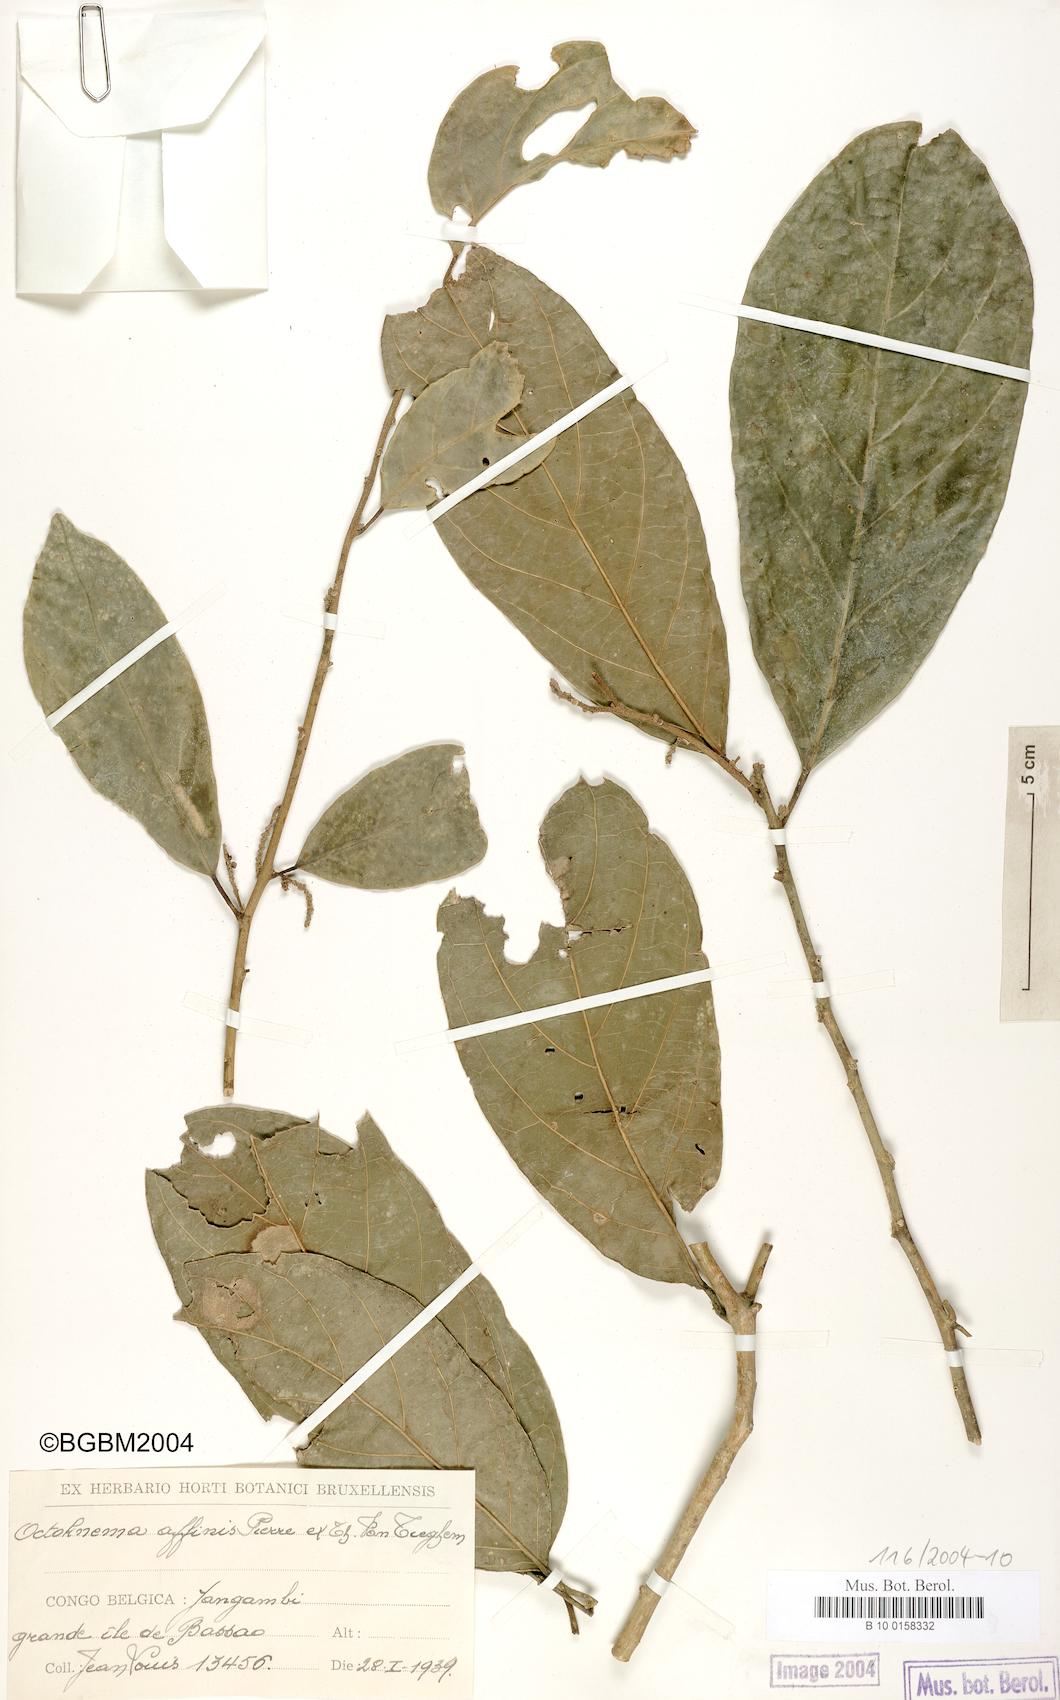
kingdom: Plantae
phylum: Tracheophyta
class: Magnoliopsida
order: Santalales
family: Octoknemaceae
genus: Octoknema
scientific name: Octoknema aruwimiensis
